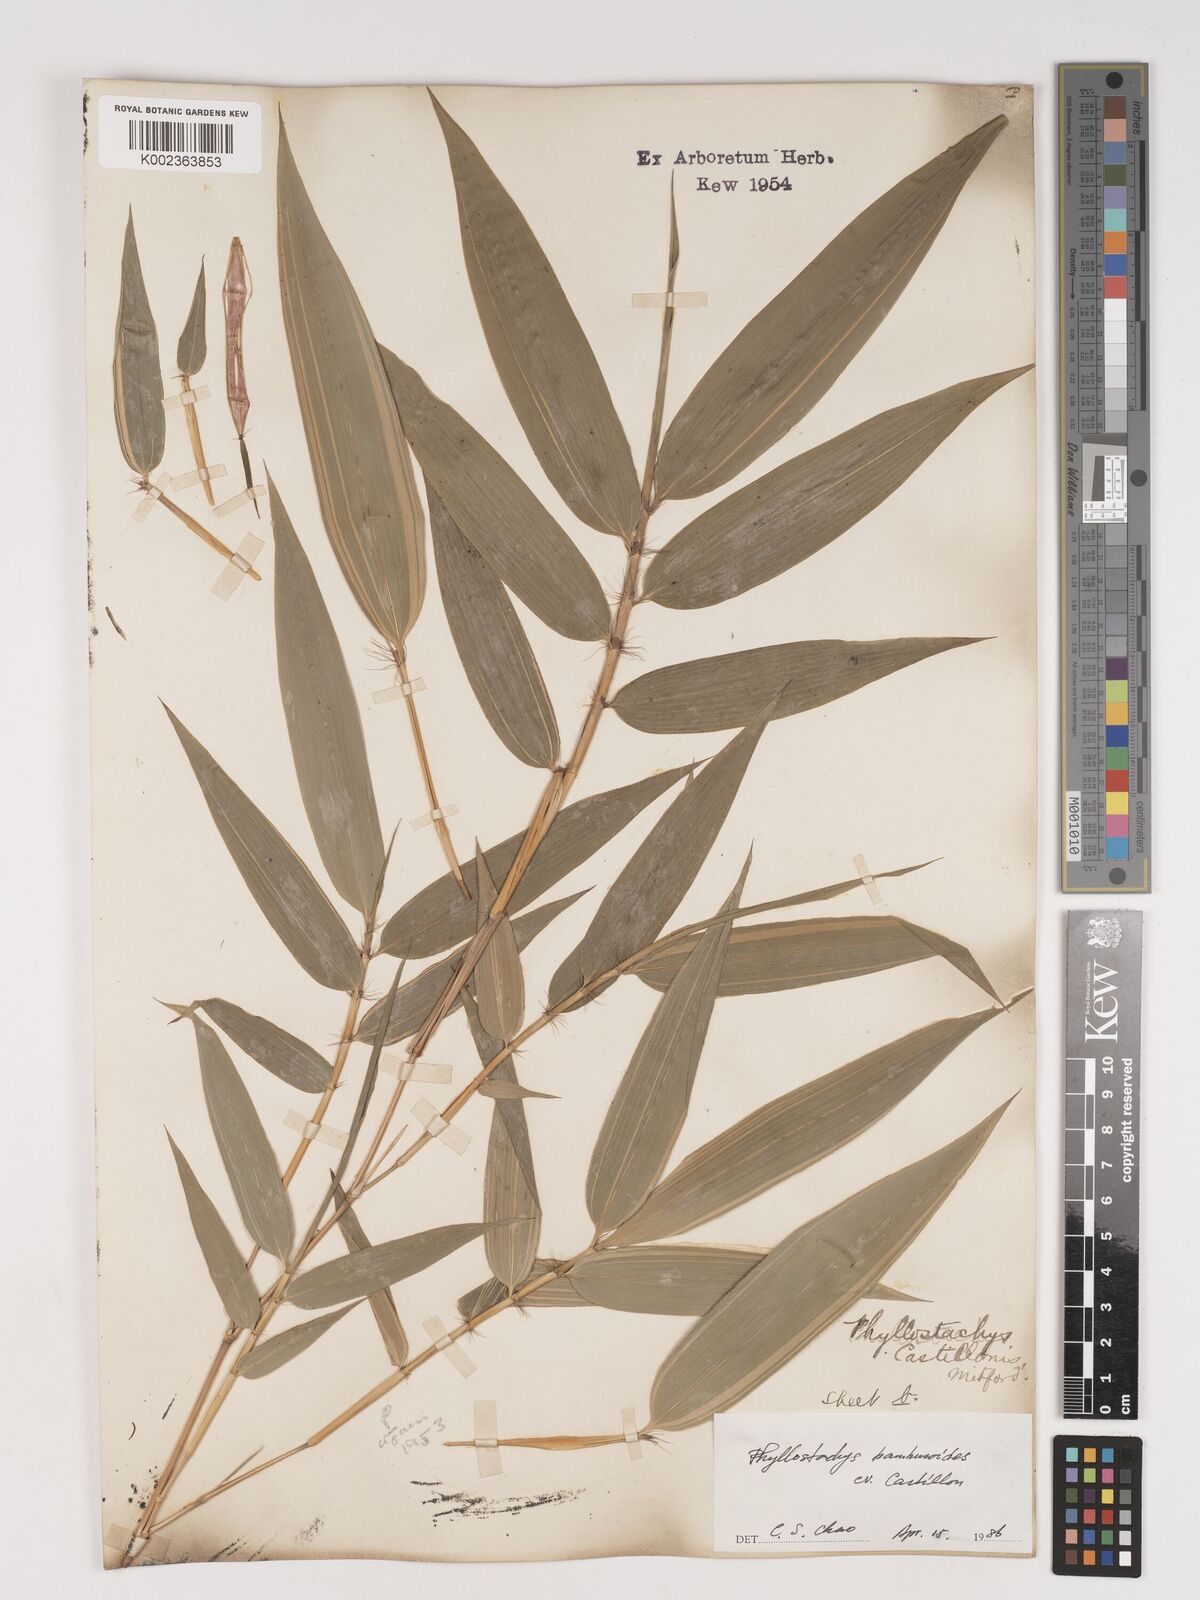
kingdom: Plantae
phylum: Tracheophyta
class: Liliopsida
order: Poales
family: Poaceae
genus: Phyllostachys
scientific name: Phyllostachys reticulata
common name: Bamboo
